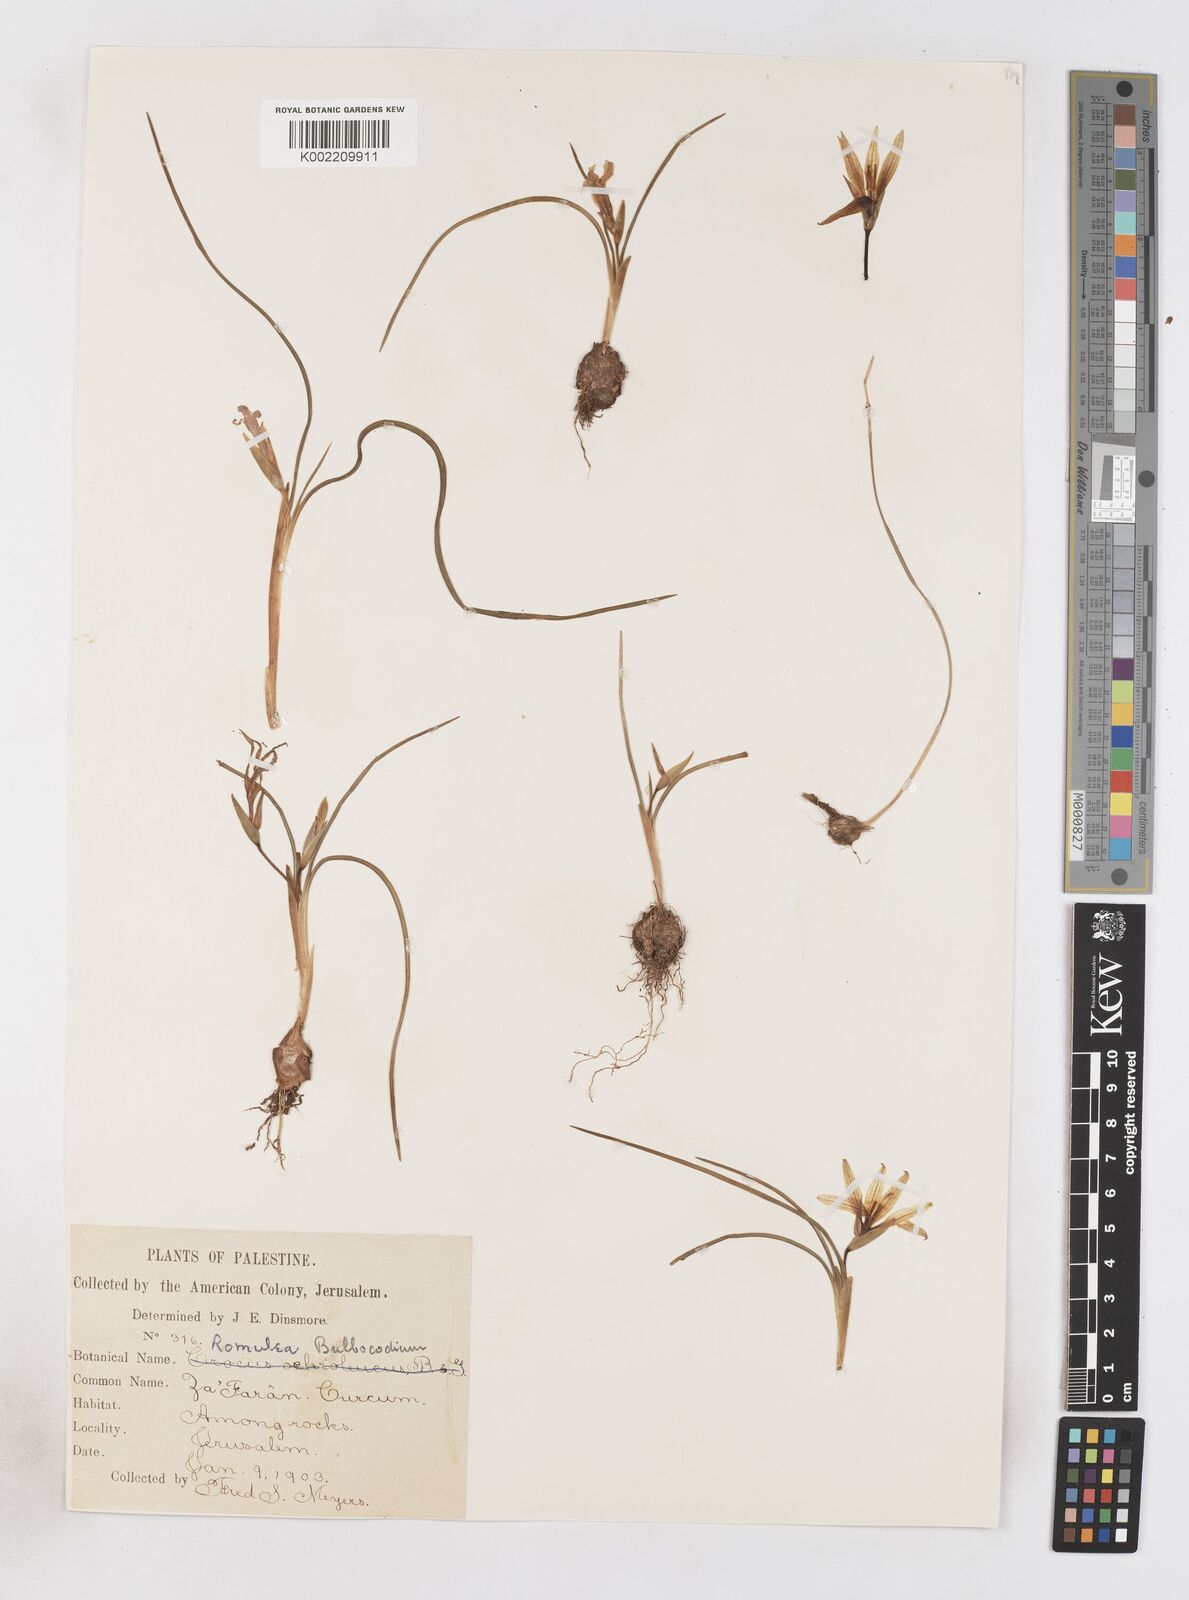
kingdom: Plantae
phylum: Tracheophyta
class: Liliopsida
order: Asparagales
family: Iridaceae
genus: Romulea
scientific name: Romulea bulbocodium
